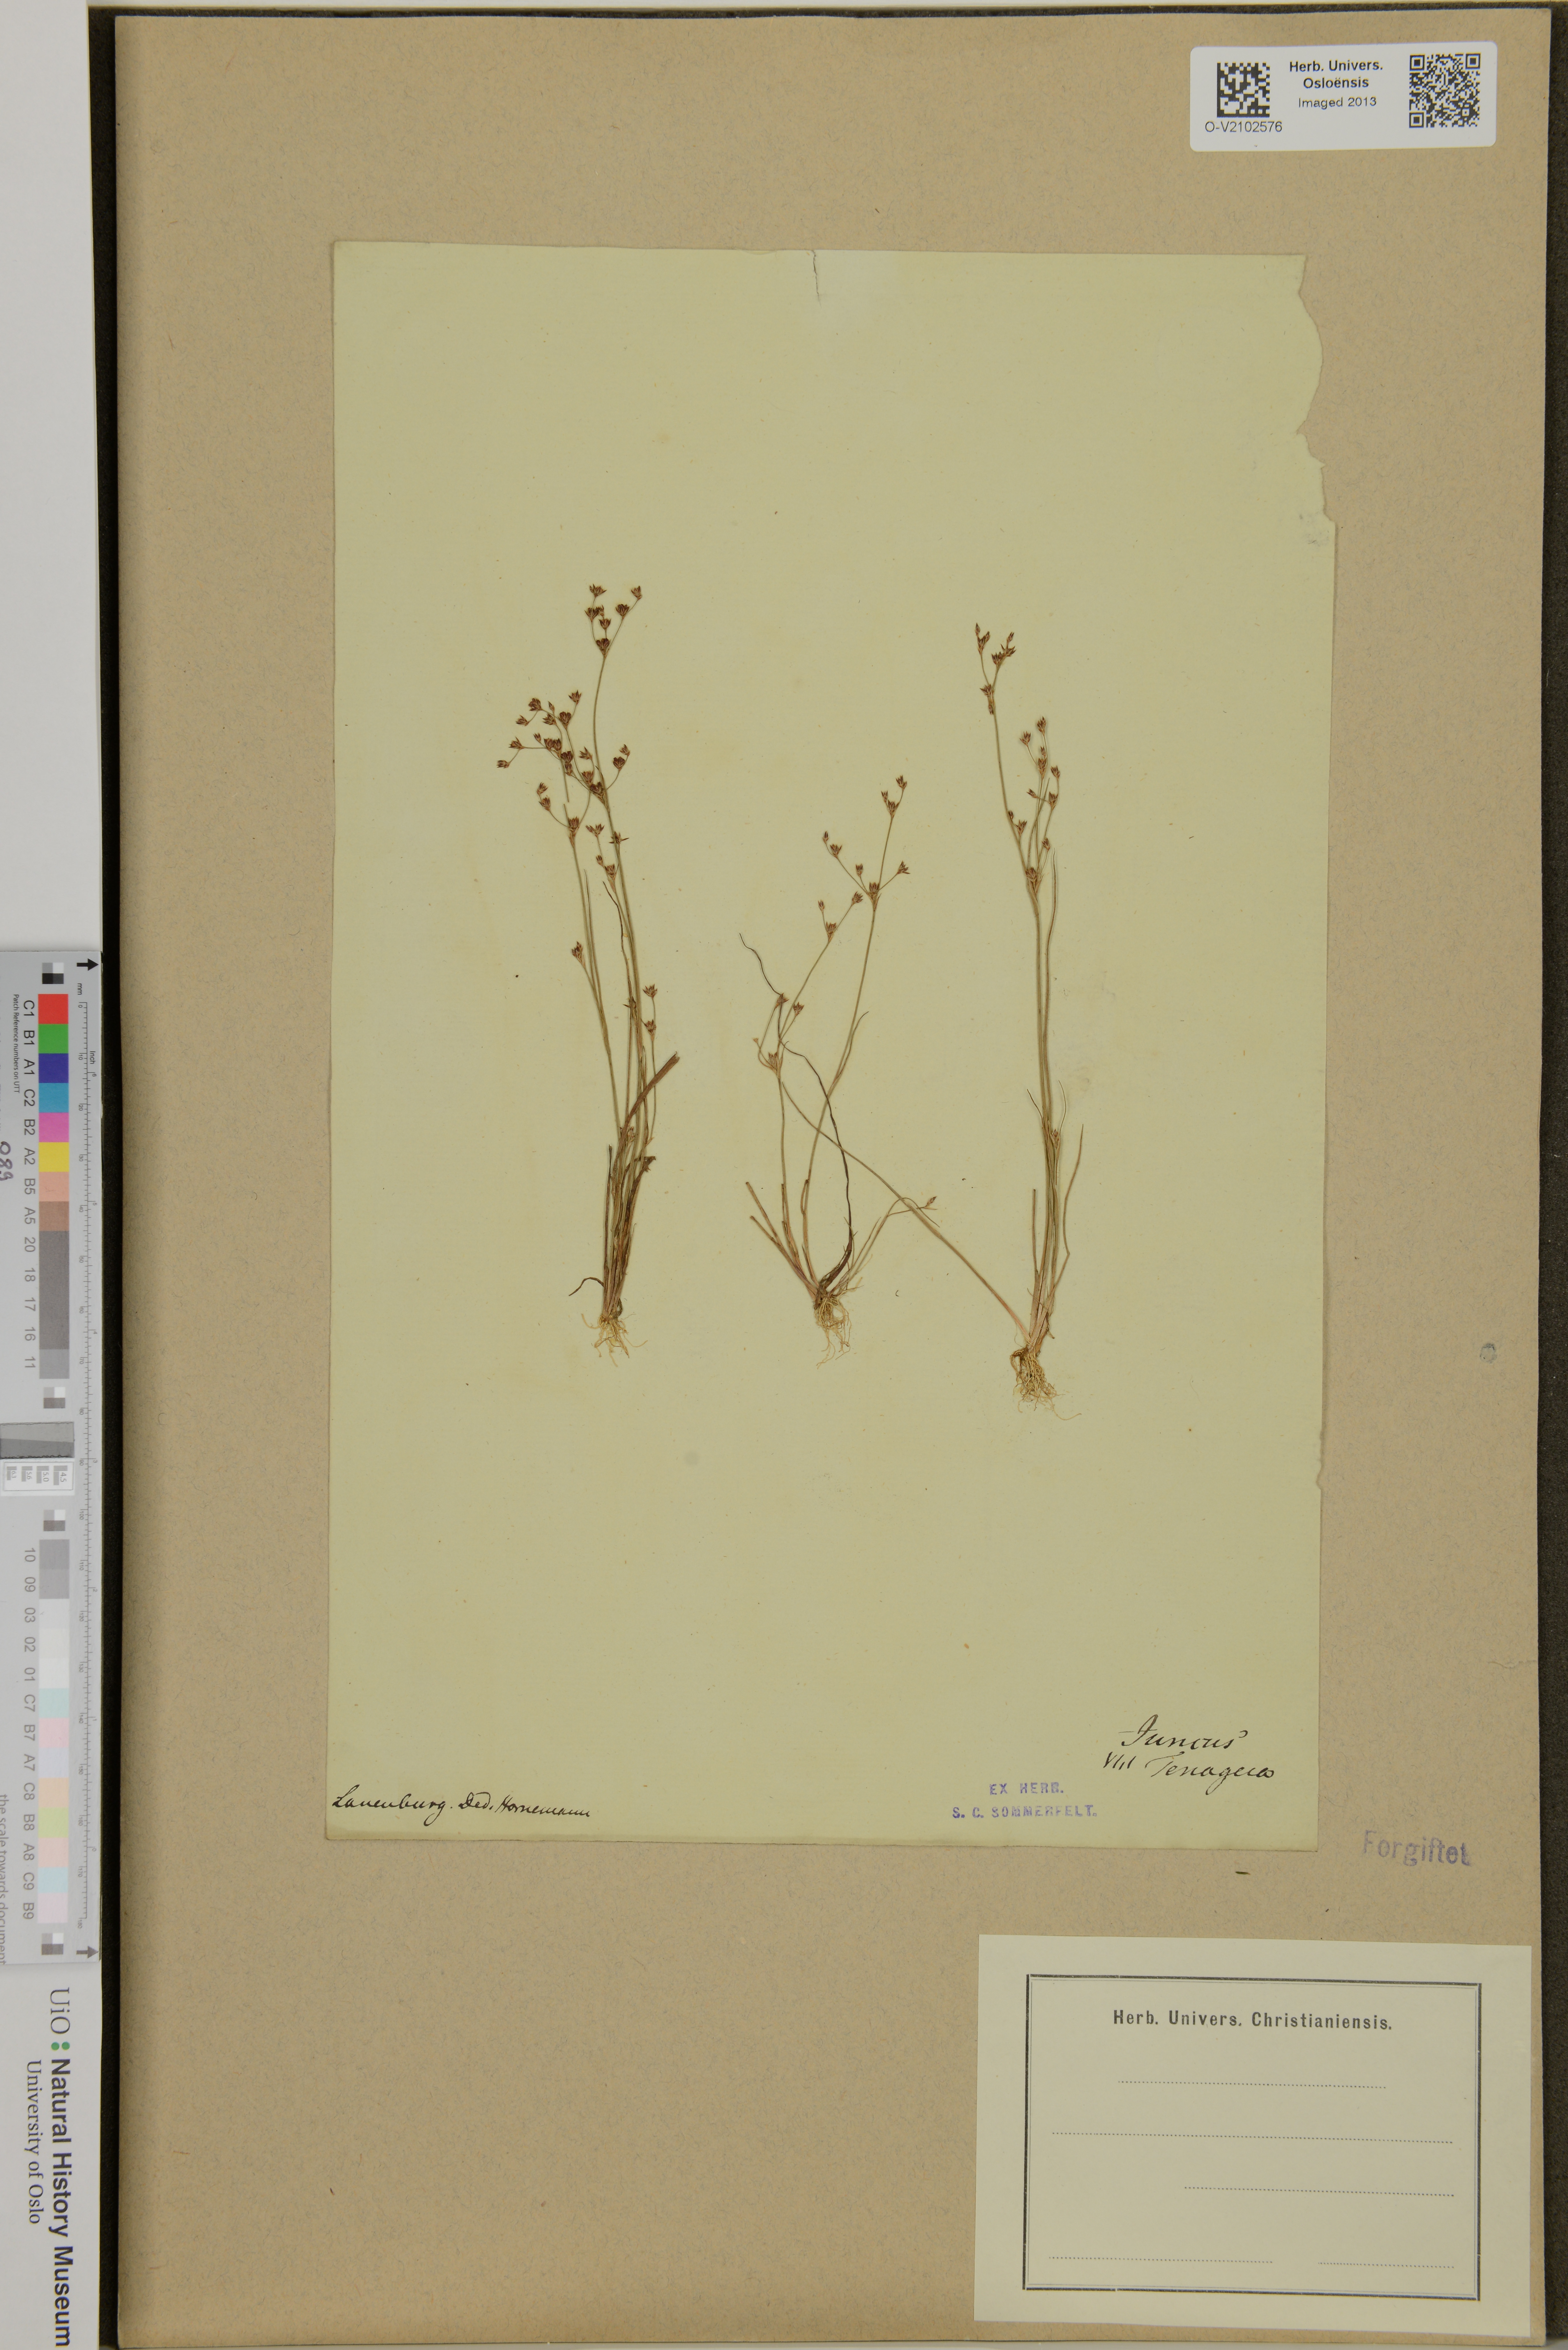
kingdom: Plantae
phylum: Tracheophyta
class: Liliopsida
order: Poales
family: Juncaceae
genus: Juncus
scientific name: Juncus tenageia
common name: Sand rush
